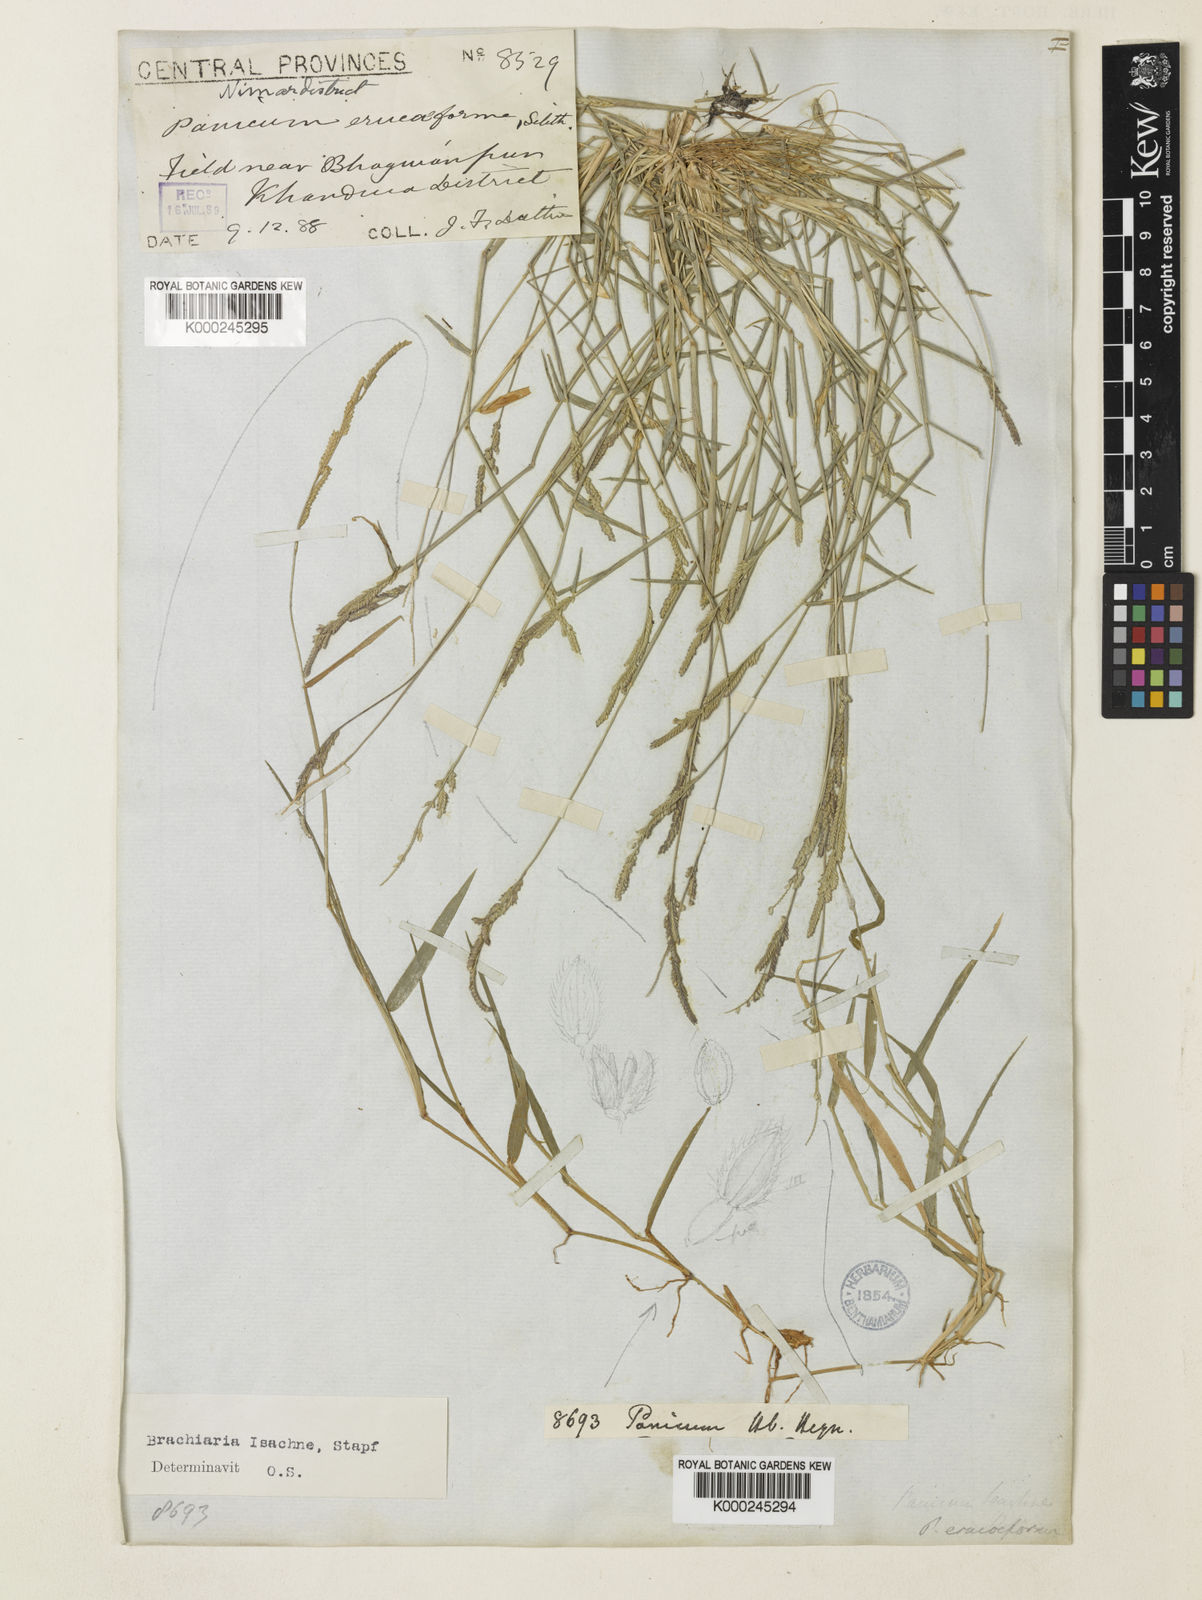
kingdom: Plantae
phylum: Tracheophyta
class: Liliopsida
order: Poales
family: Poaceae
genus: Moorochloa
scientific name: Moorochloa eruciformis
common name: Sweet signalgrass
